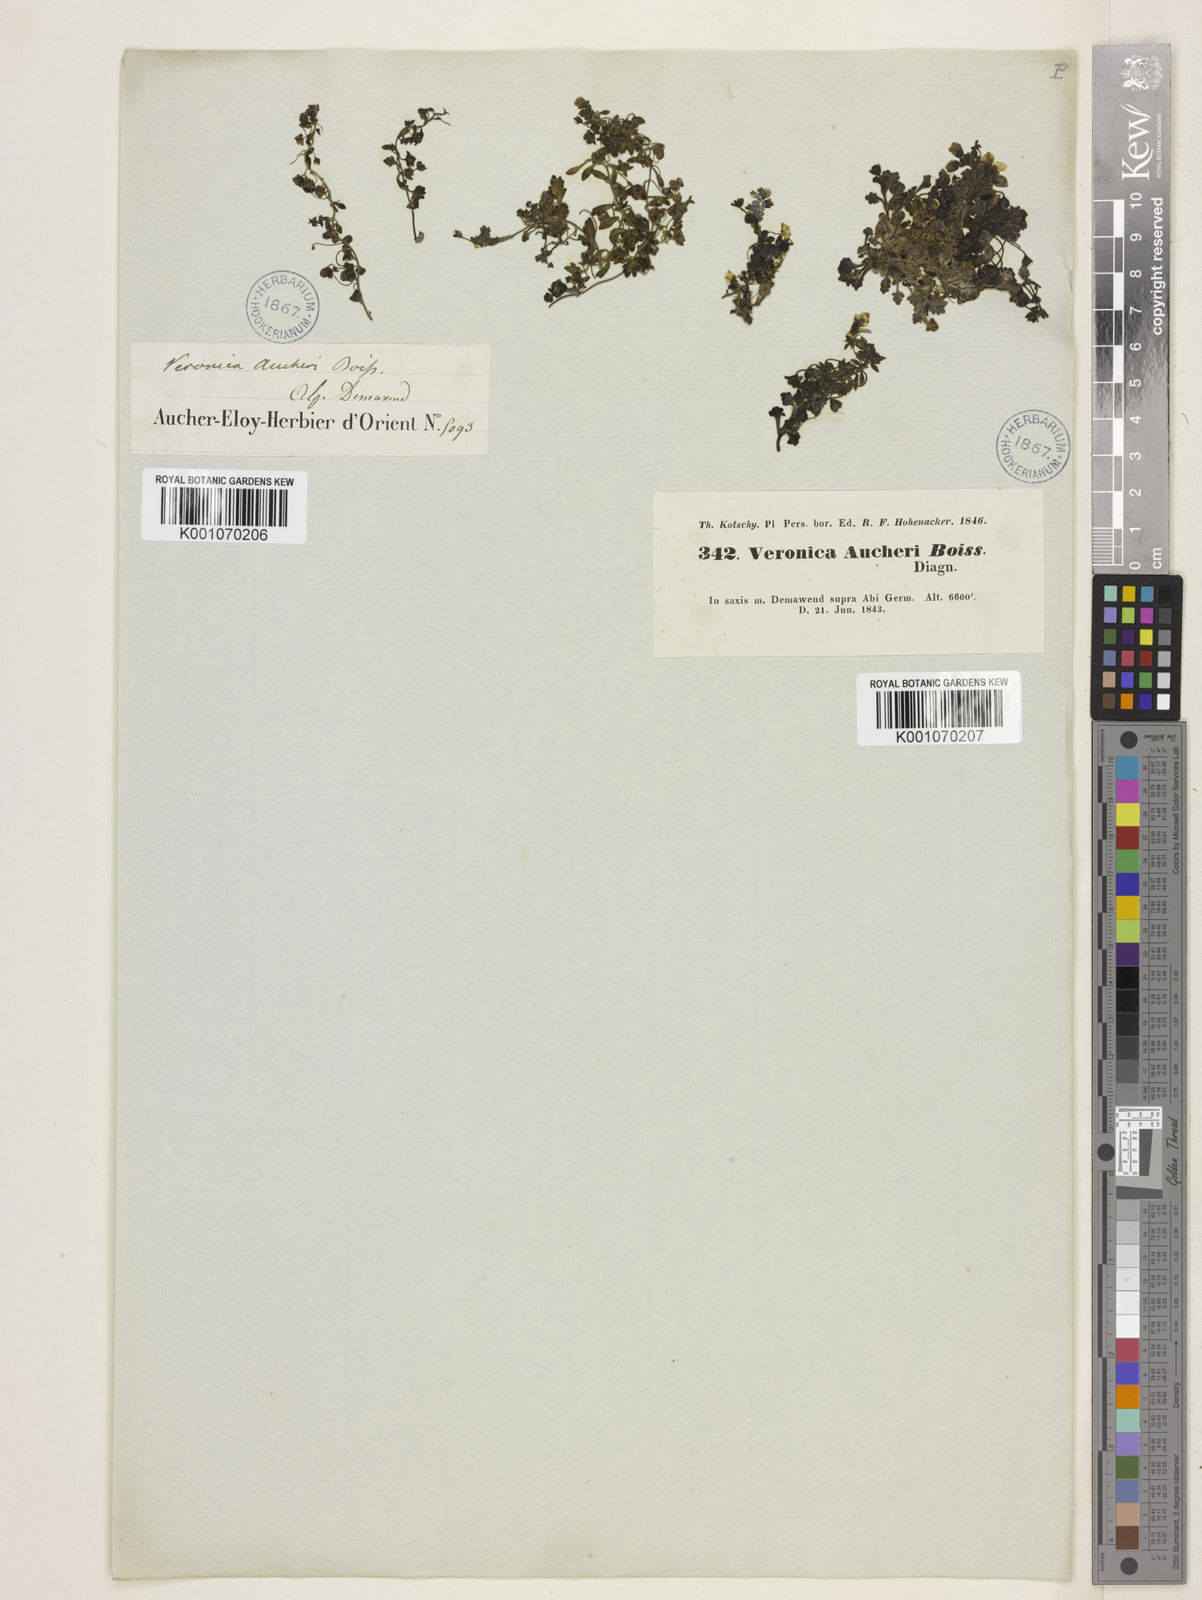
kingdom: Plantae
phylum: Tracheophyta
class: Magnoliopsida
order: Lamiales
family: Plantaginaceae
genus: Veronica
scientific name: Veronica aucheri
